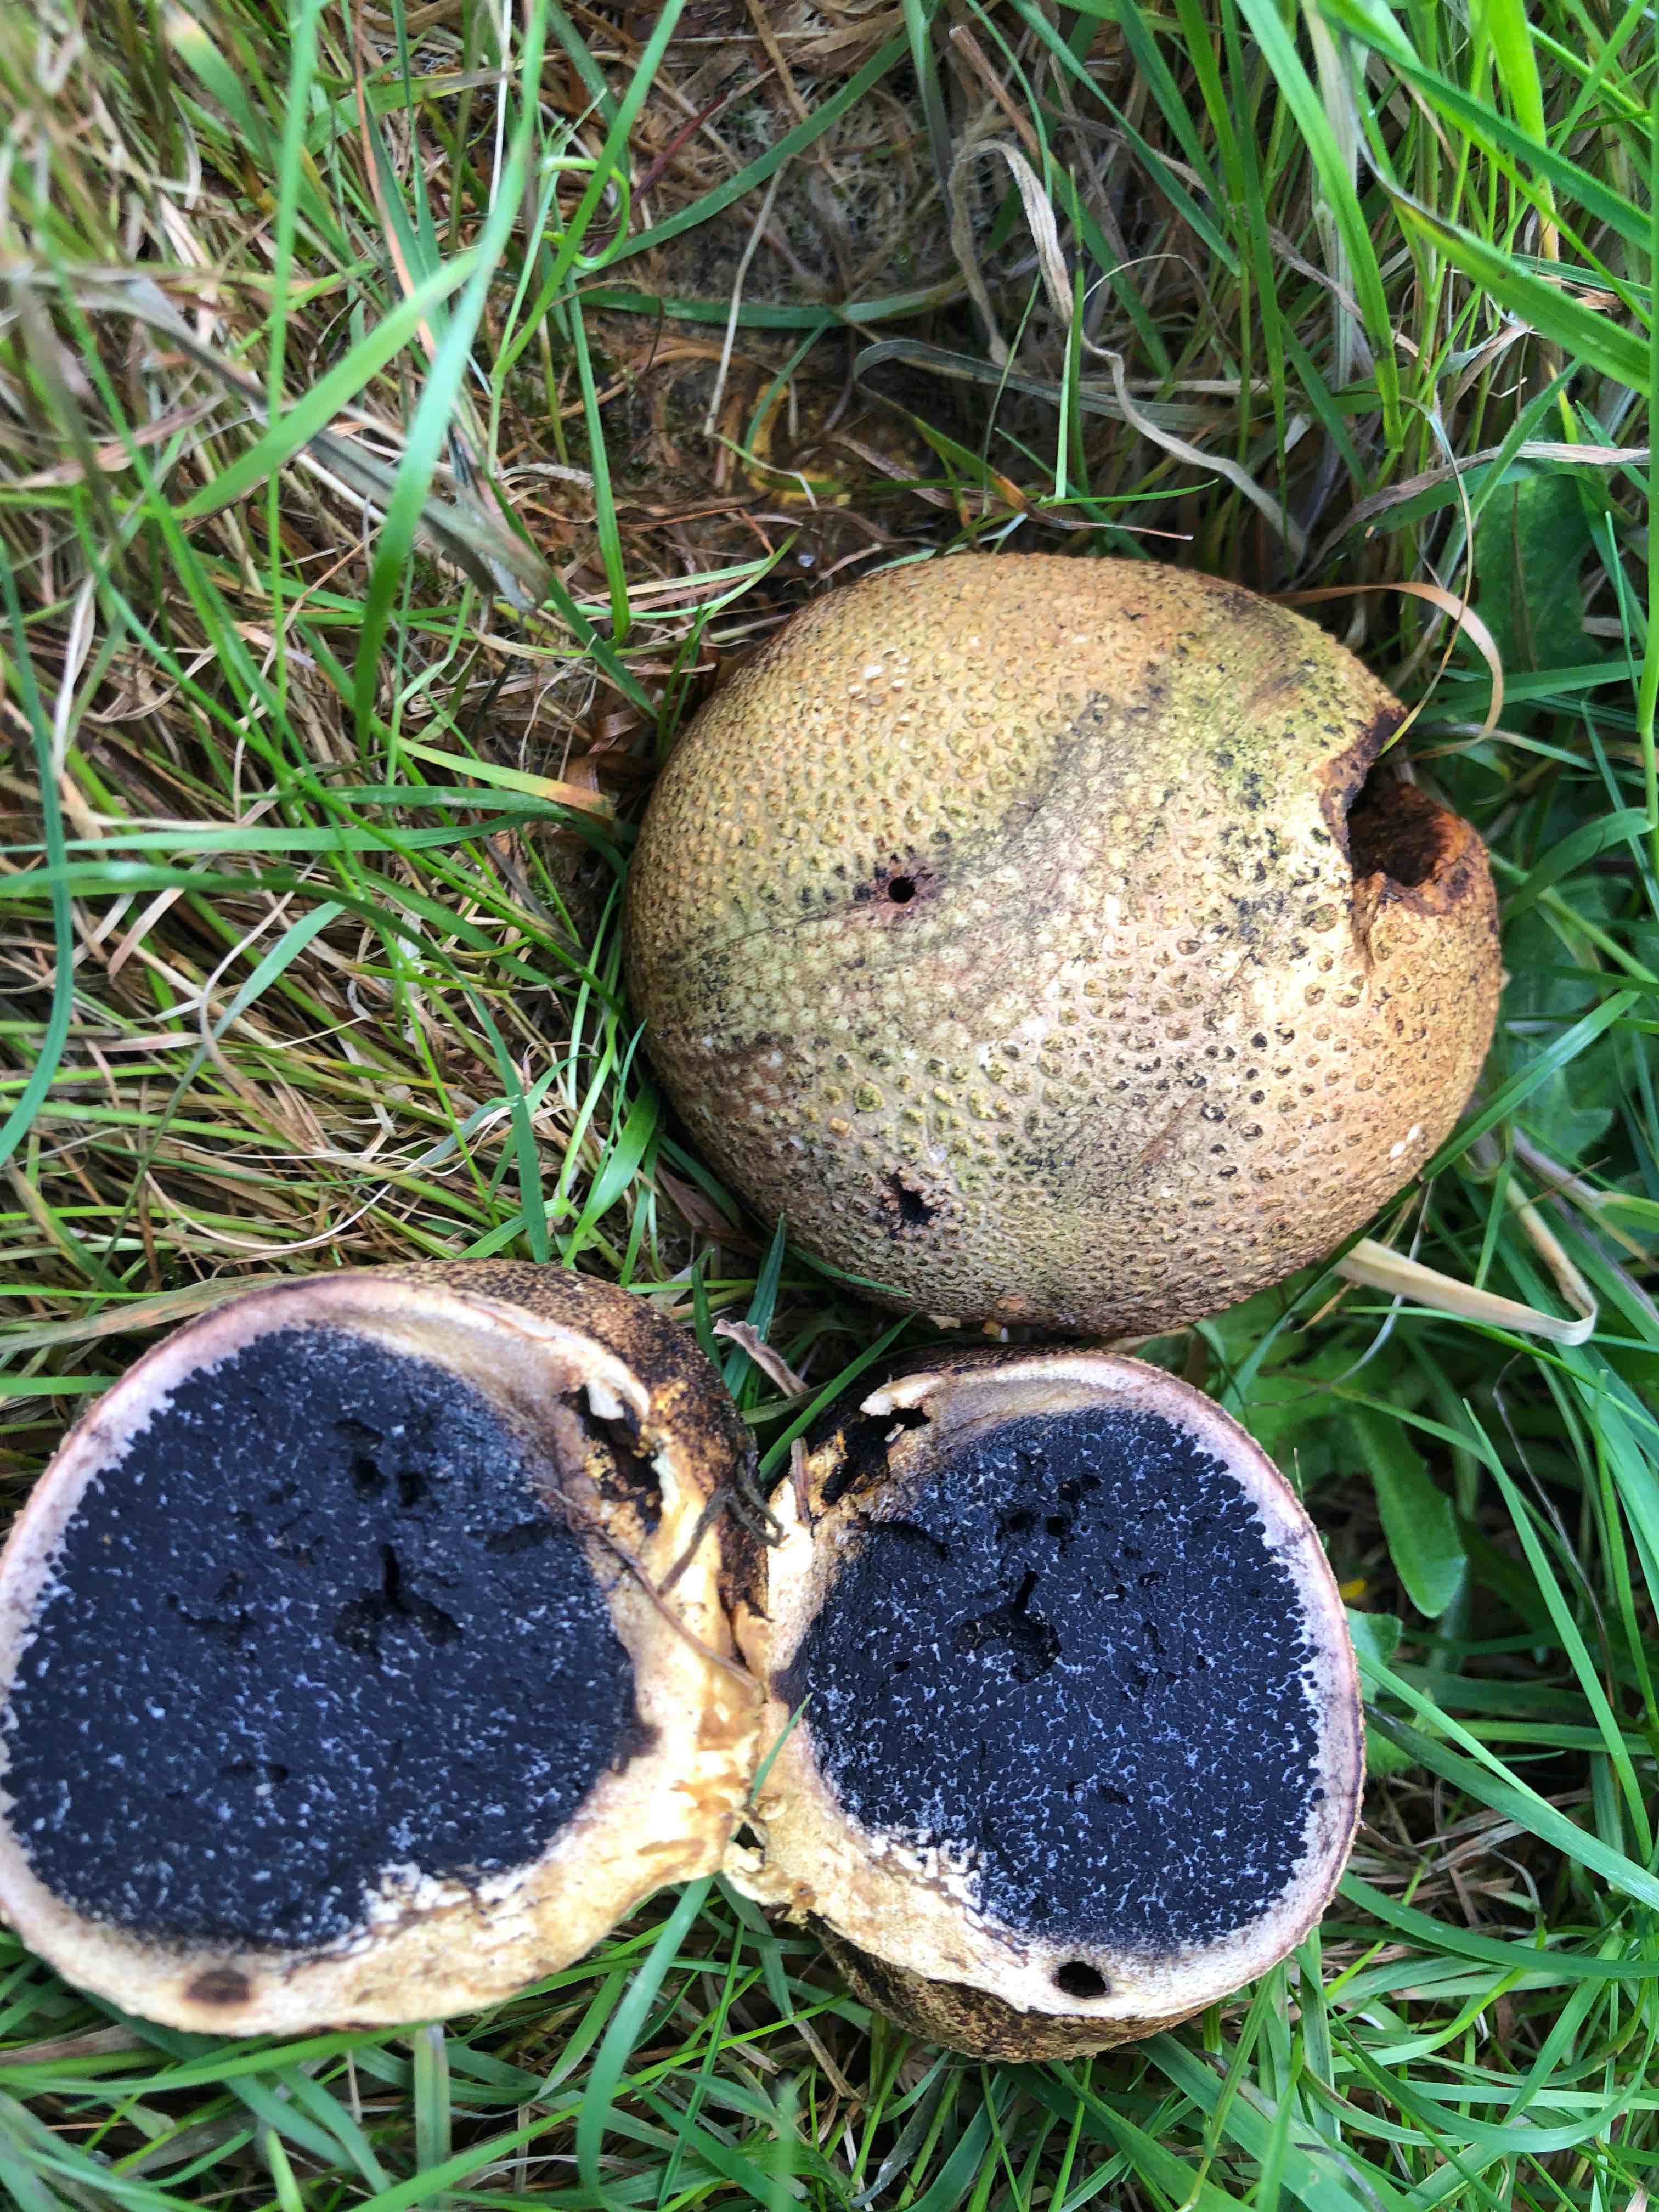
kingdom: Fungi
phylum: Basidiomycota
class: Agaricomycetes
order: Boletales
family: Sclerodermataceae
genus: Scleroderma
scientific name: Scleroderma citrinum
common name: almindelig bruskbold
